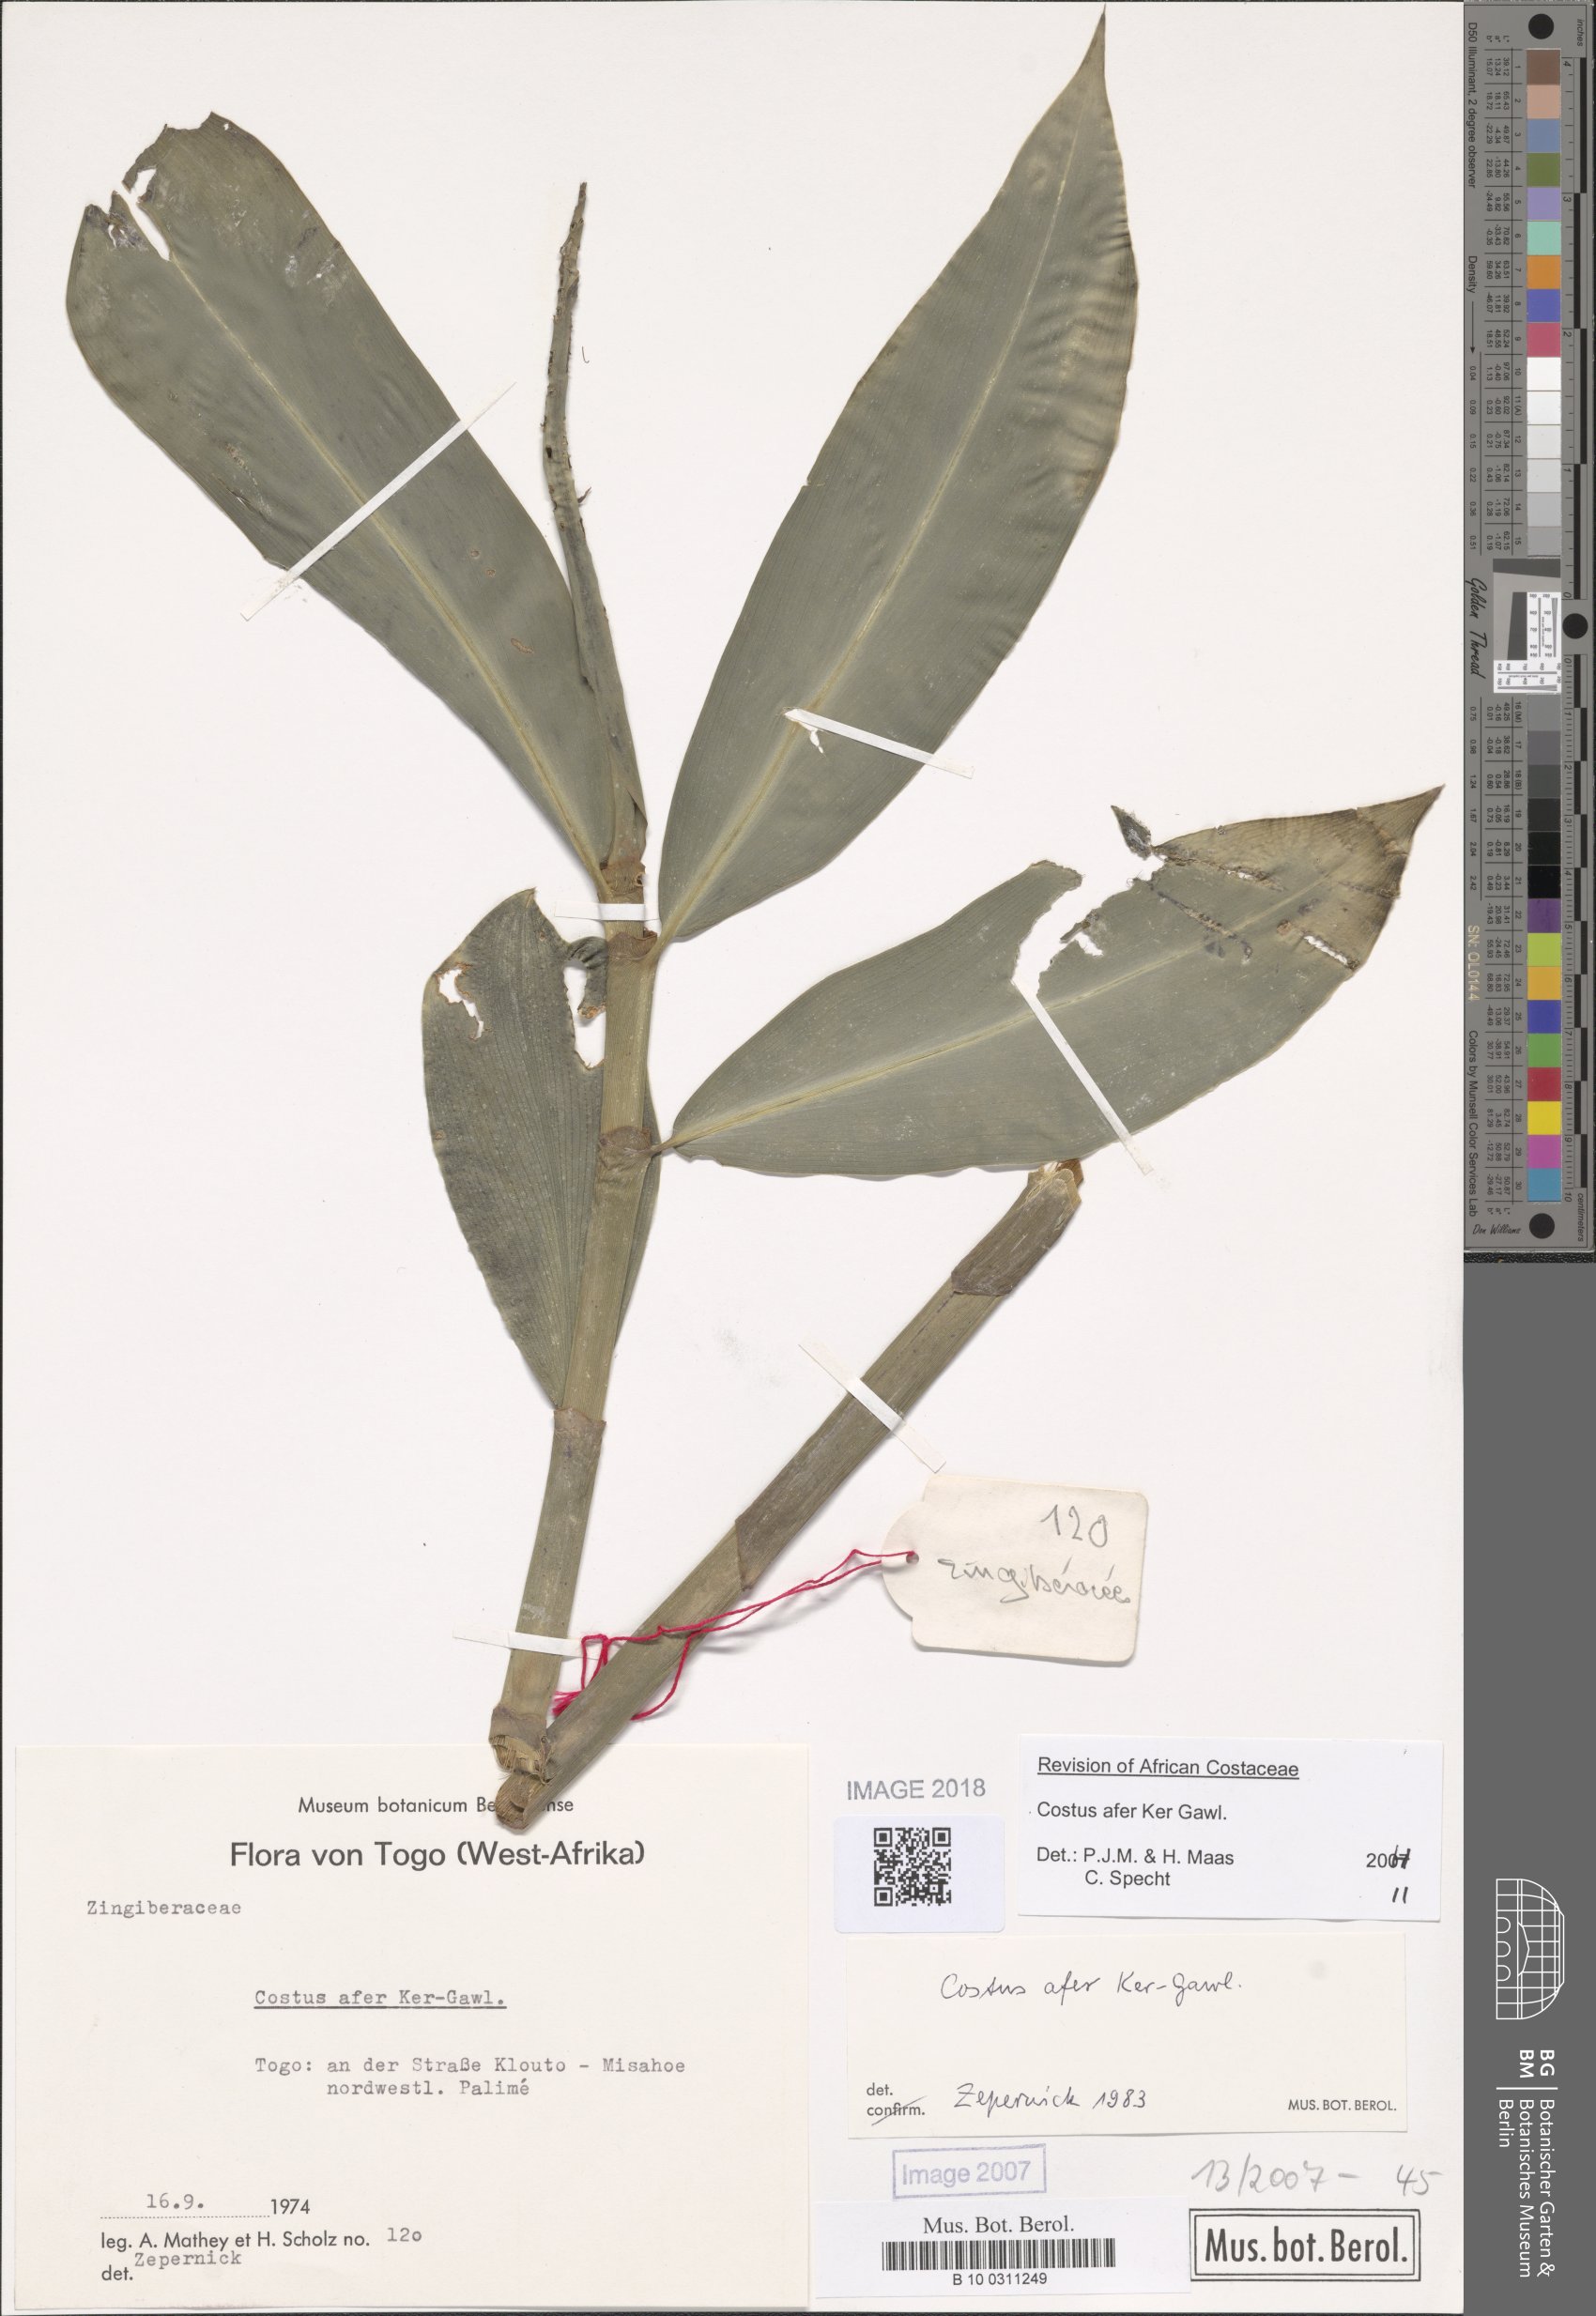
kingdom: Plantae
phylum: Tracheophyta
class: Liliopsida
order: Zingiberales
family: Costaceae
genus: Costus
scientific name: Costus afer
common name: Spiral-ginger
